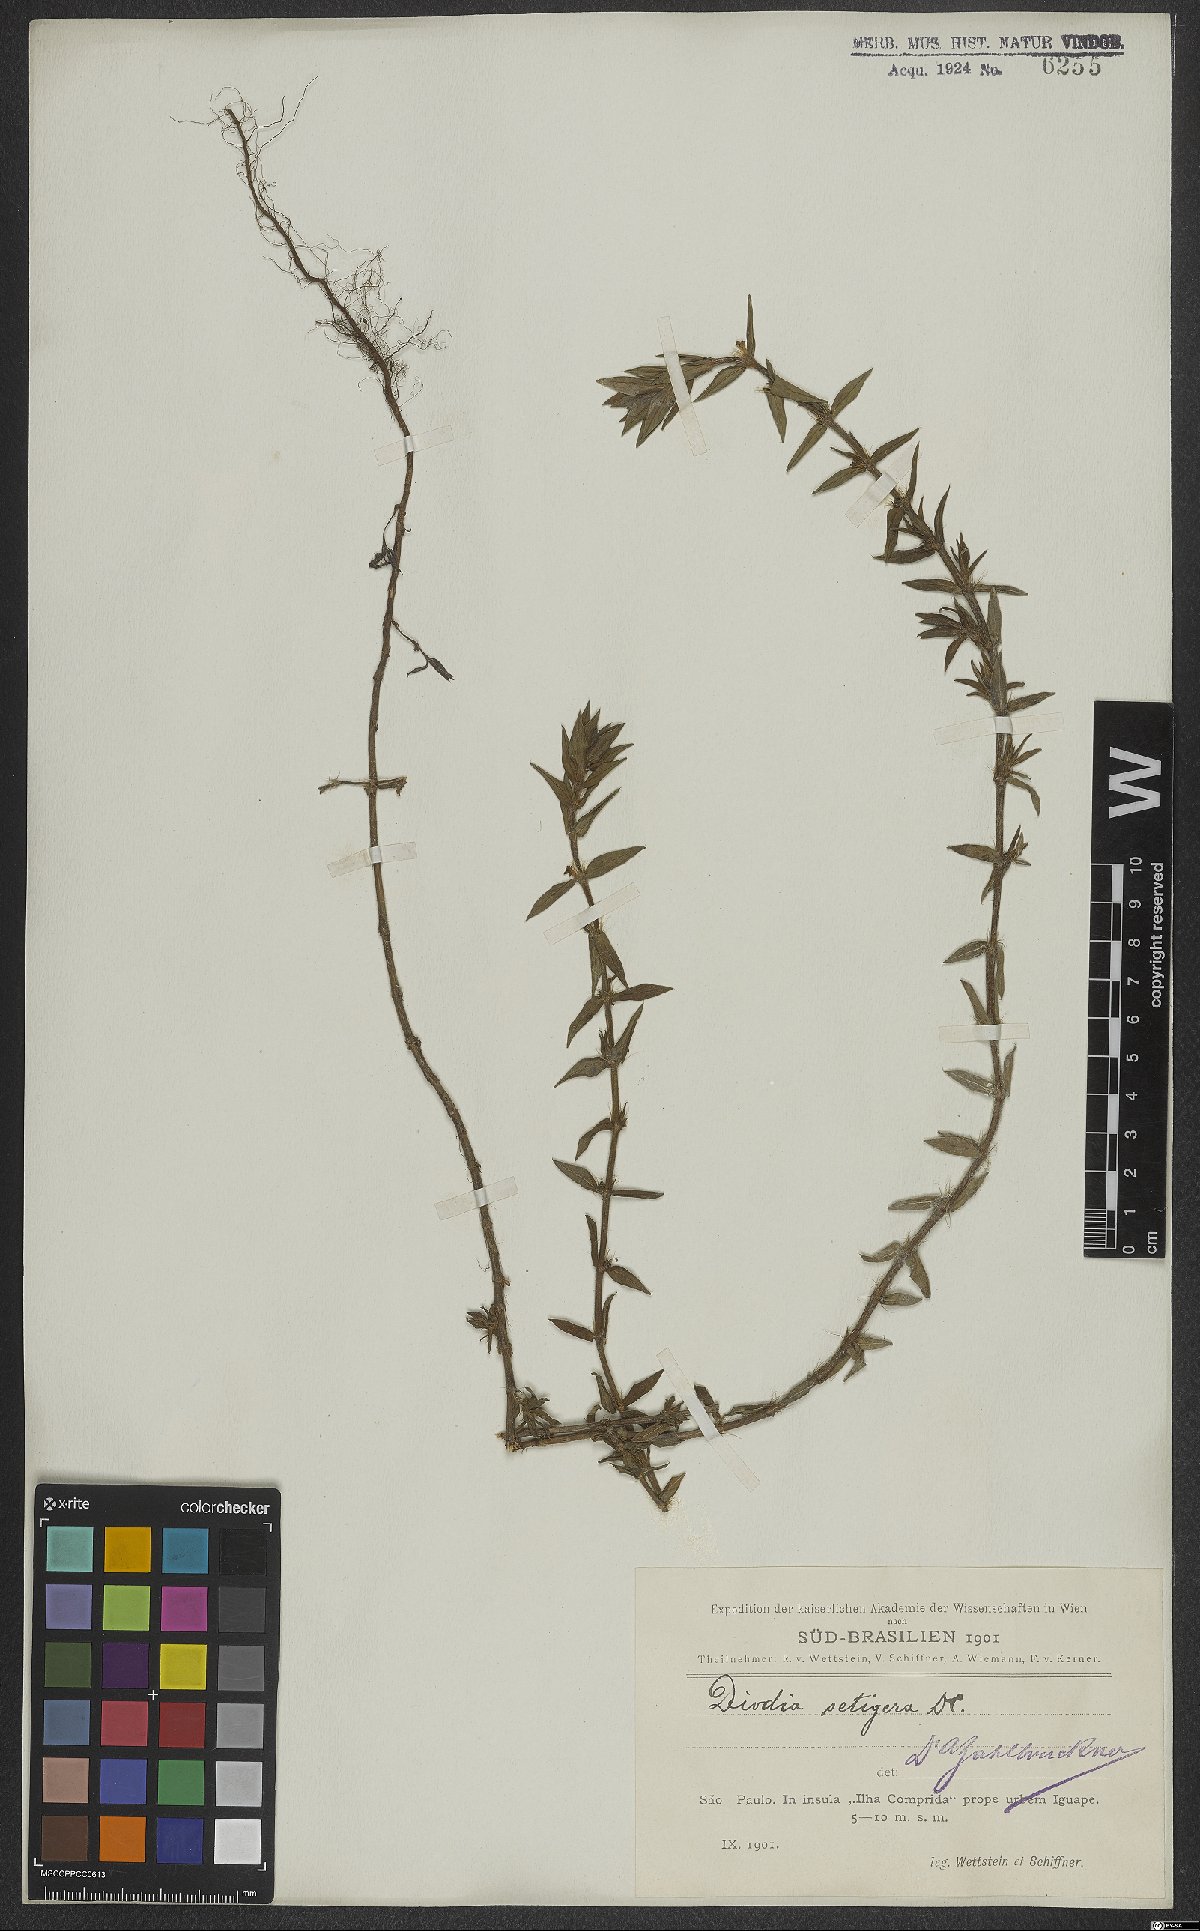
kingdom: Plantae
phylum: Tracheophyta
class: Magnoliopsida
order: Gentianales
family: Rubiaceae
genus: Hexasepalum
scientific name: Hexasepalum apiculatum
